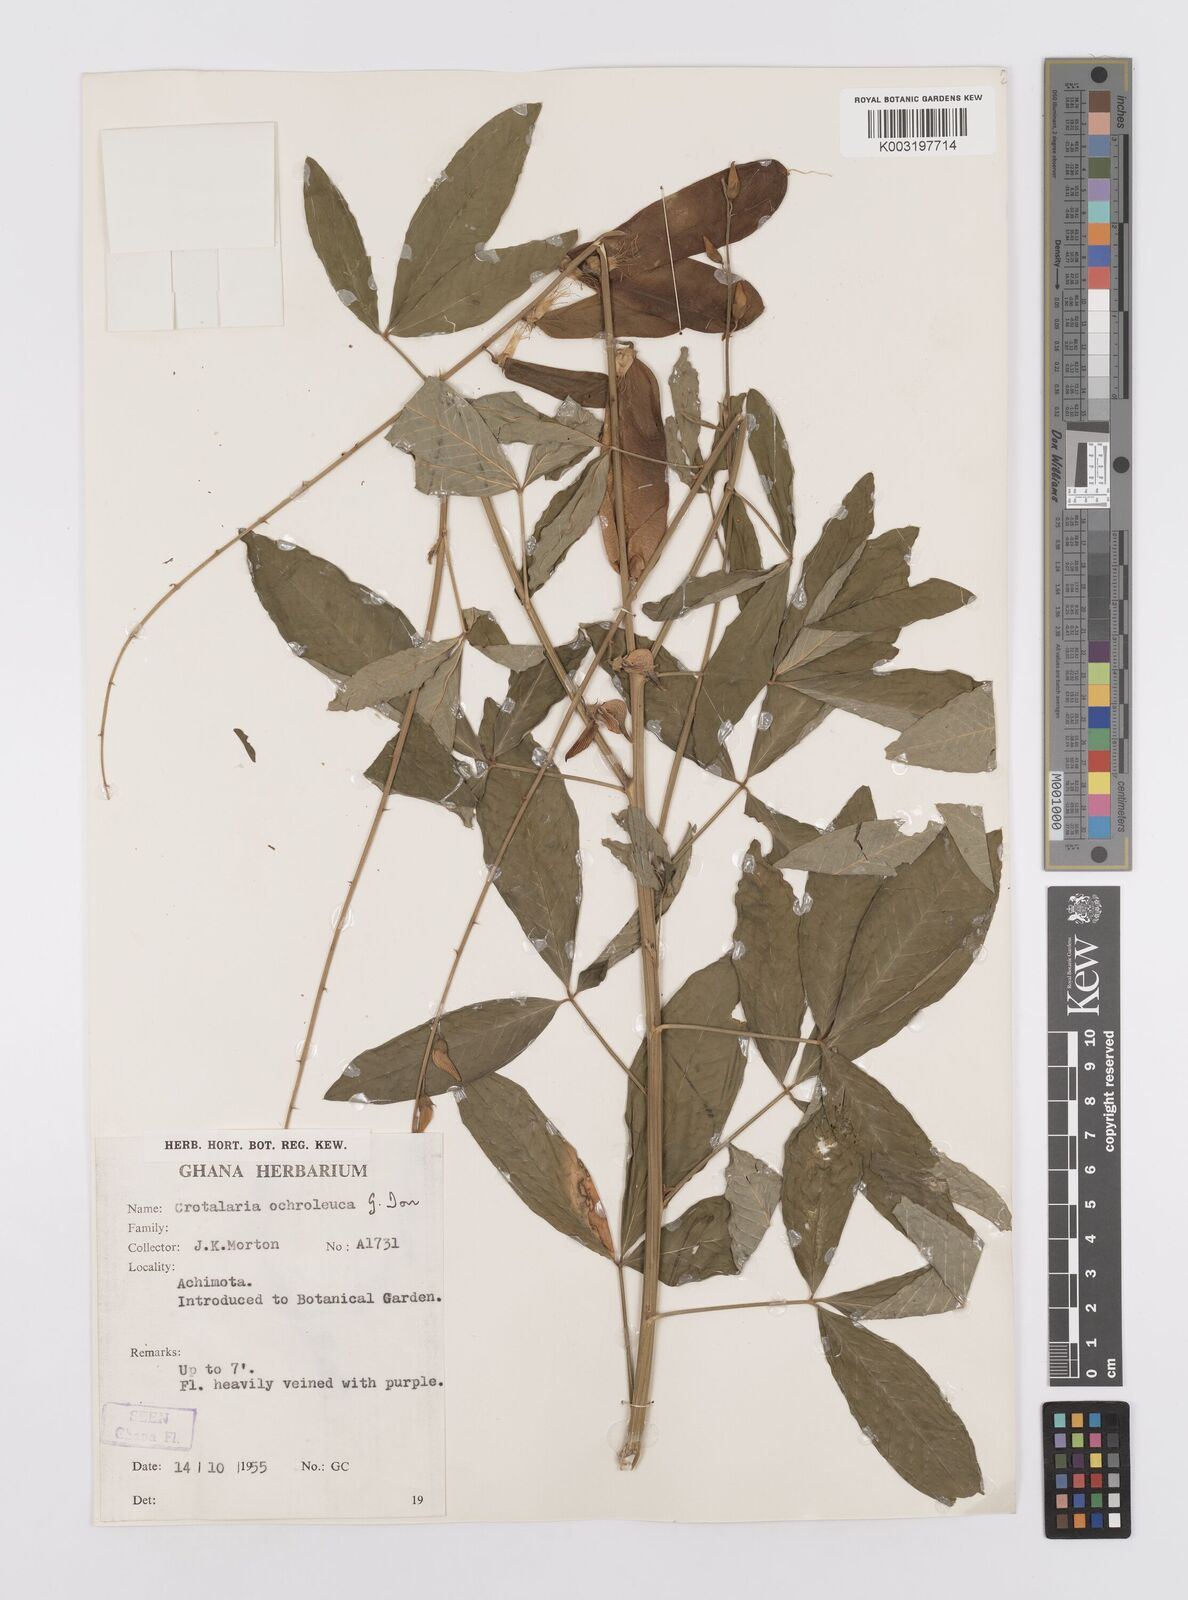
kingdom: Plantae
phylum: Tracheophyta
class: Magnoliopsida
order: Fabales
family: Fabaceae
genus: Crotalaria
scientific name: Crotalaria ochroleuca
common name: Slender leaf rattlebox
